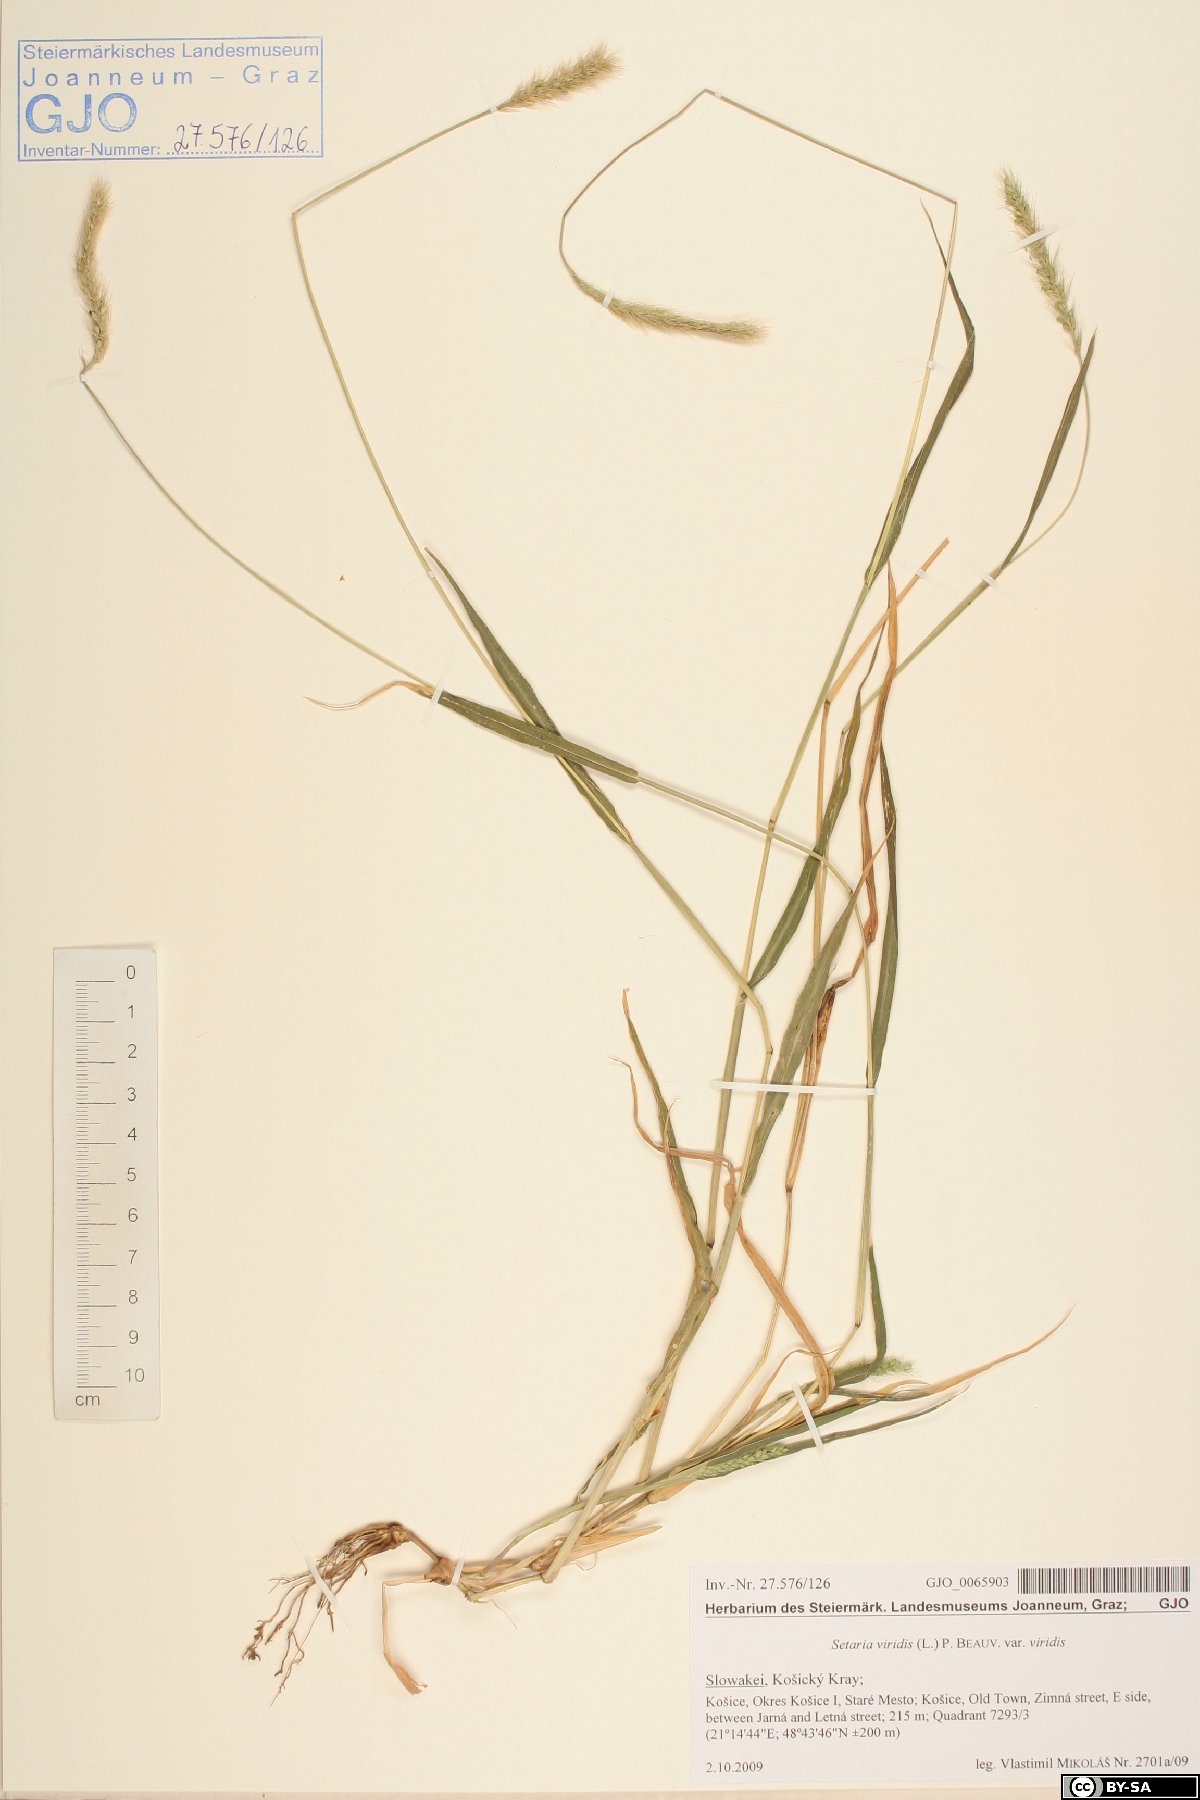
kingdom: Plantae
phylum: Tracheophyta
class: Liliopsida
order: Poales
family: Poaceae
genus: Setaria
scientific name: Setaria viridis
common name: Green bristlegrass
